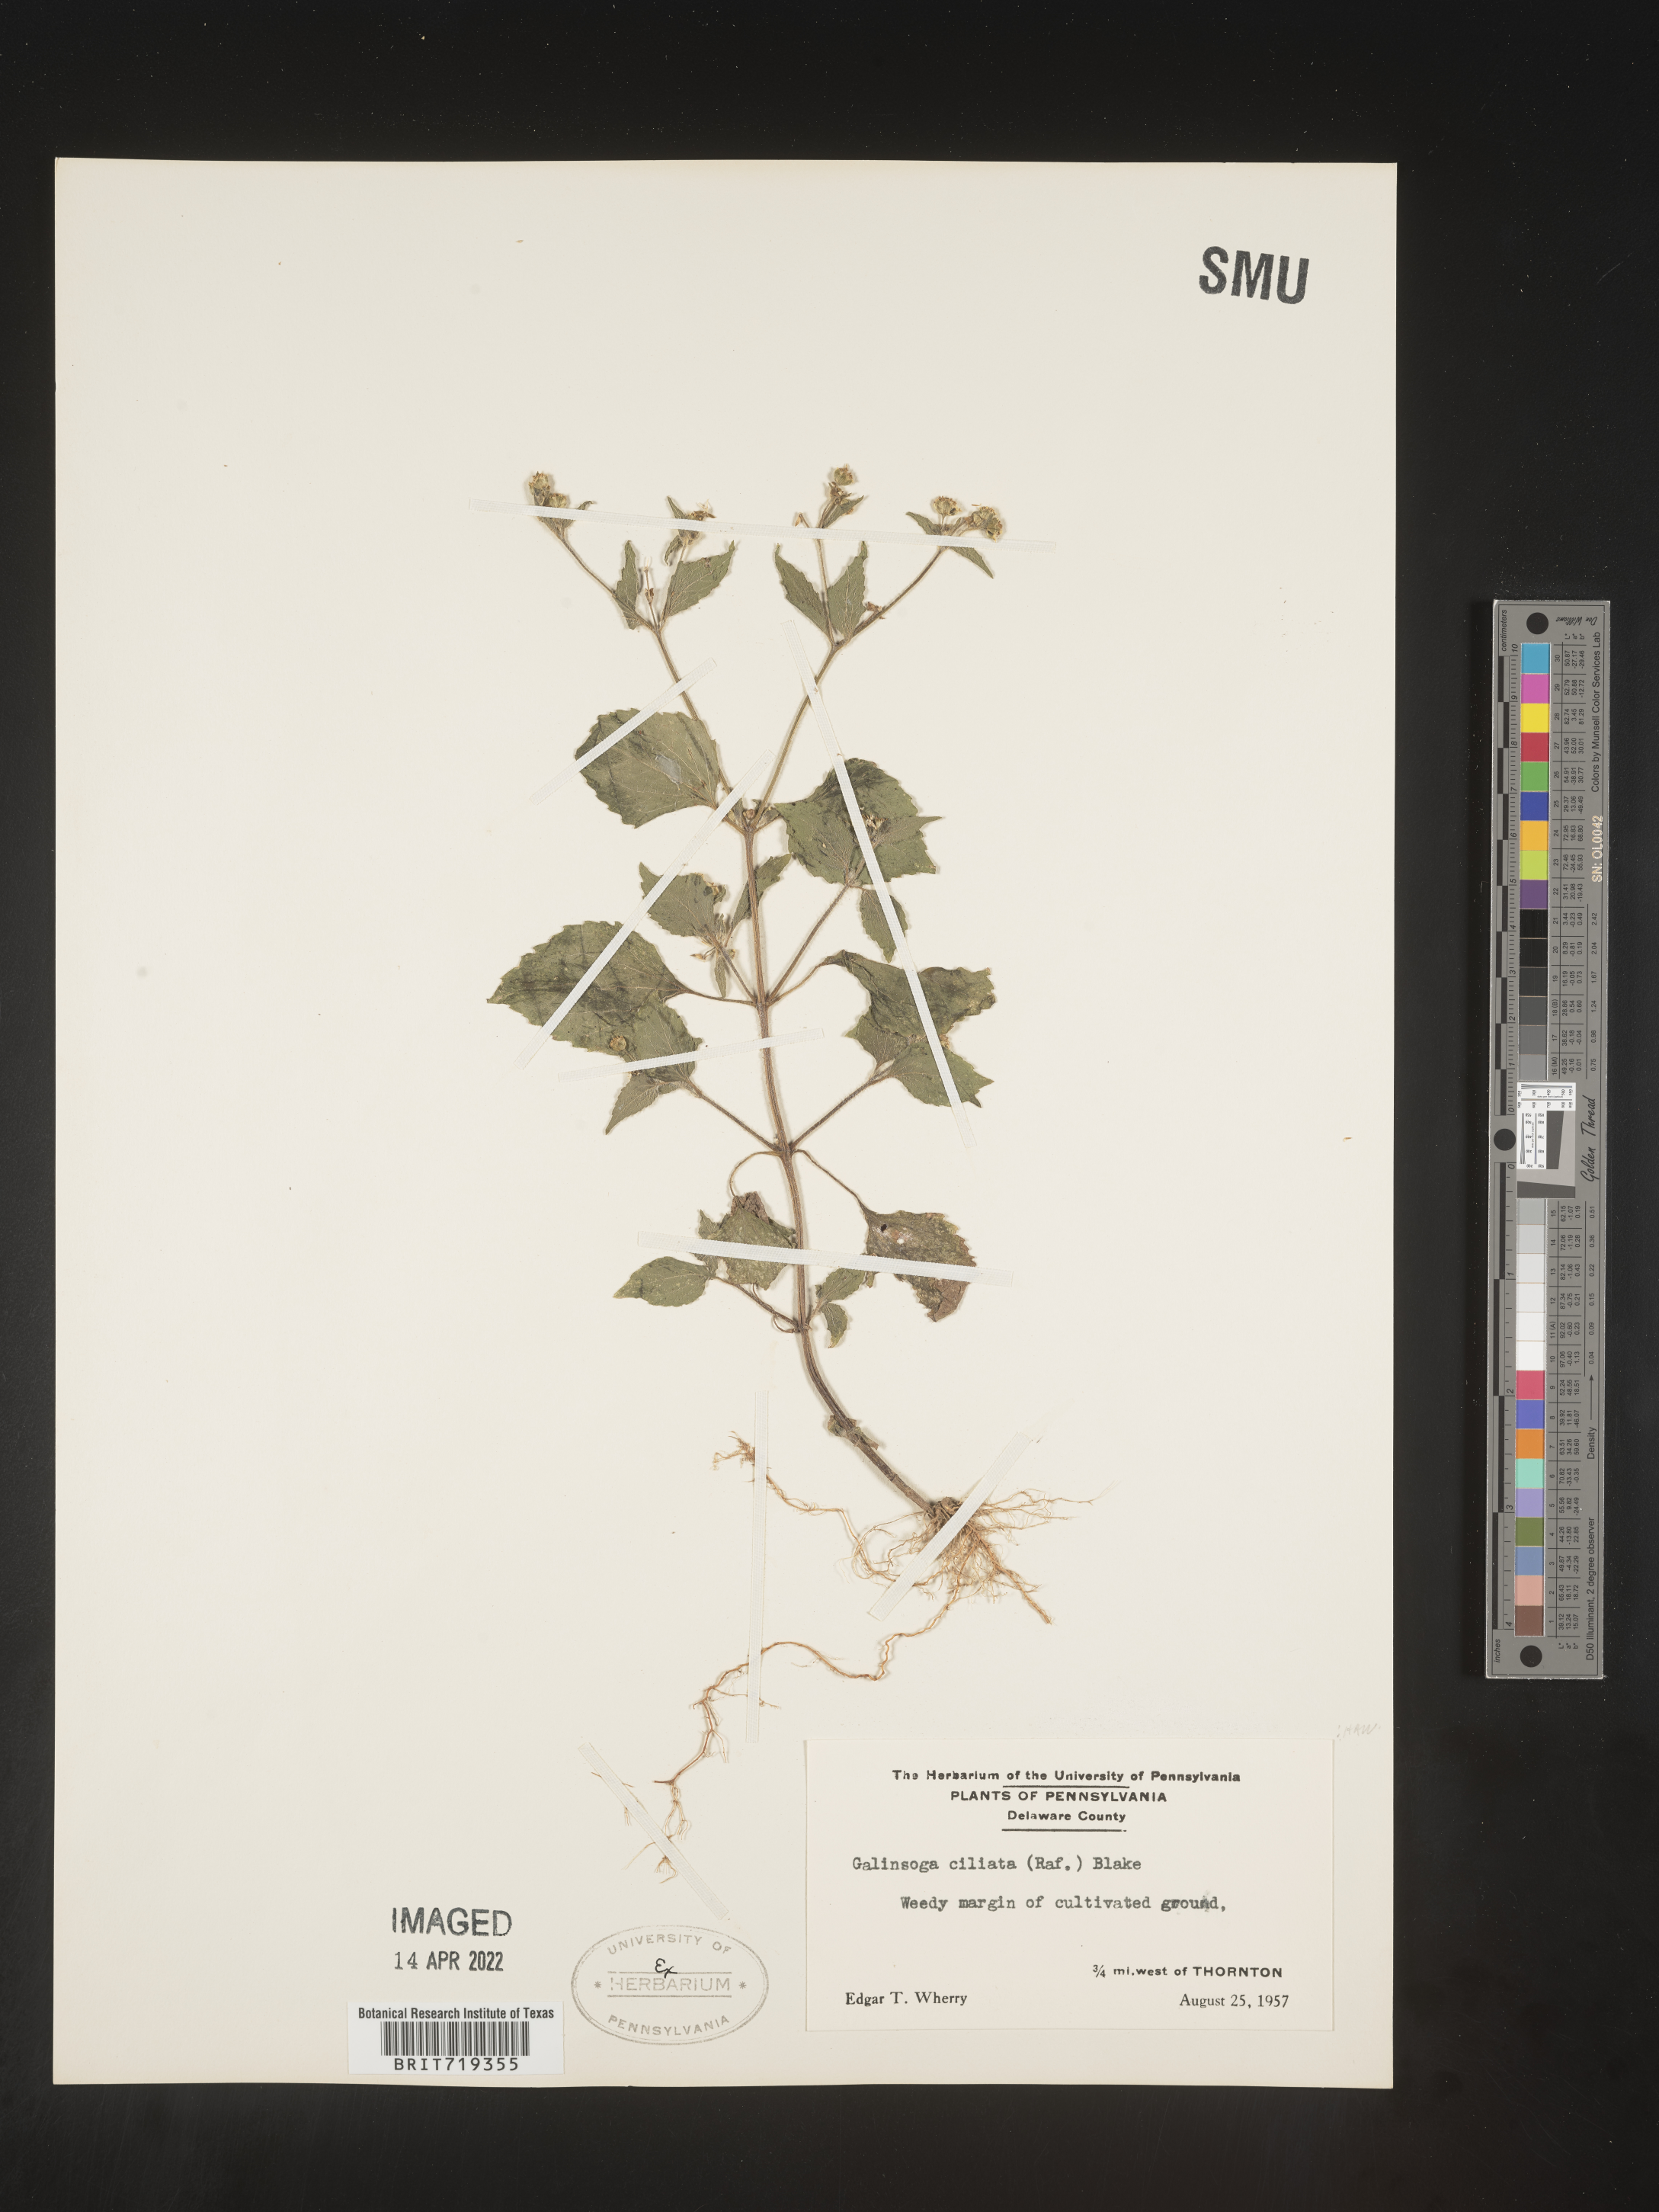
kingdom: Plantae
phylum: Tracheophyta
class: Magnoliopsida
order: Asterales
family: Asteraceae
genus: Galinsoga
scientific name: Galinsoga quadriradiata
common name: Shaggy soldier
